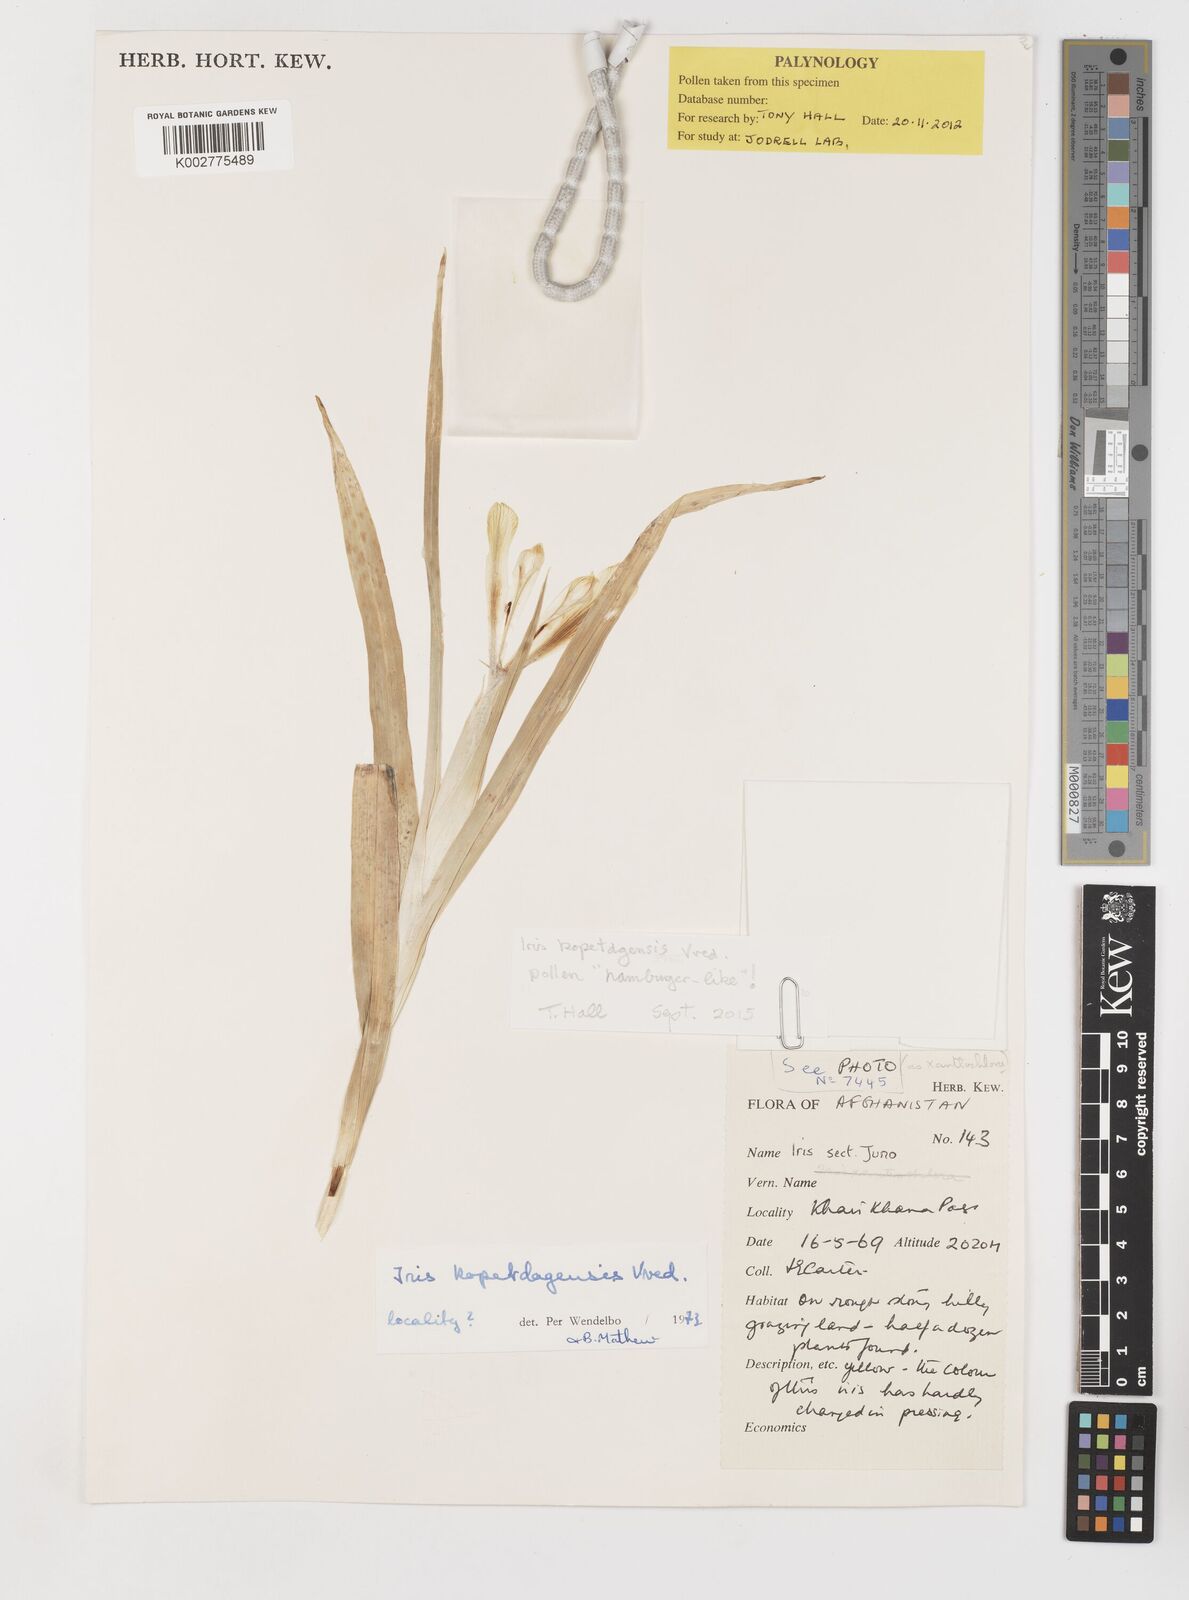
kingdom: Plantae
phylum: Tracheophyta
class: Liliopsida
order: Asparagales
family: Iridaceae
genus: Iris
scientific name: Iris kopetdagensis
